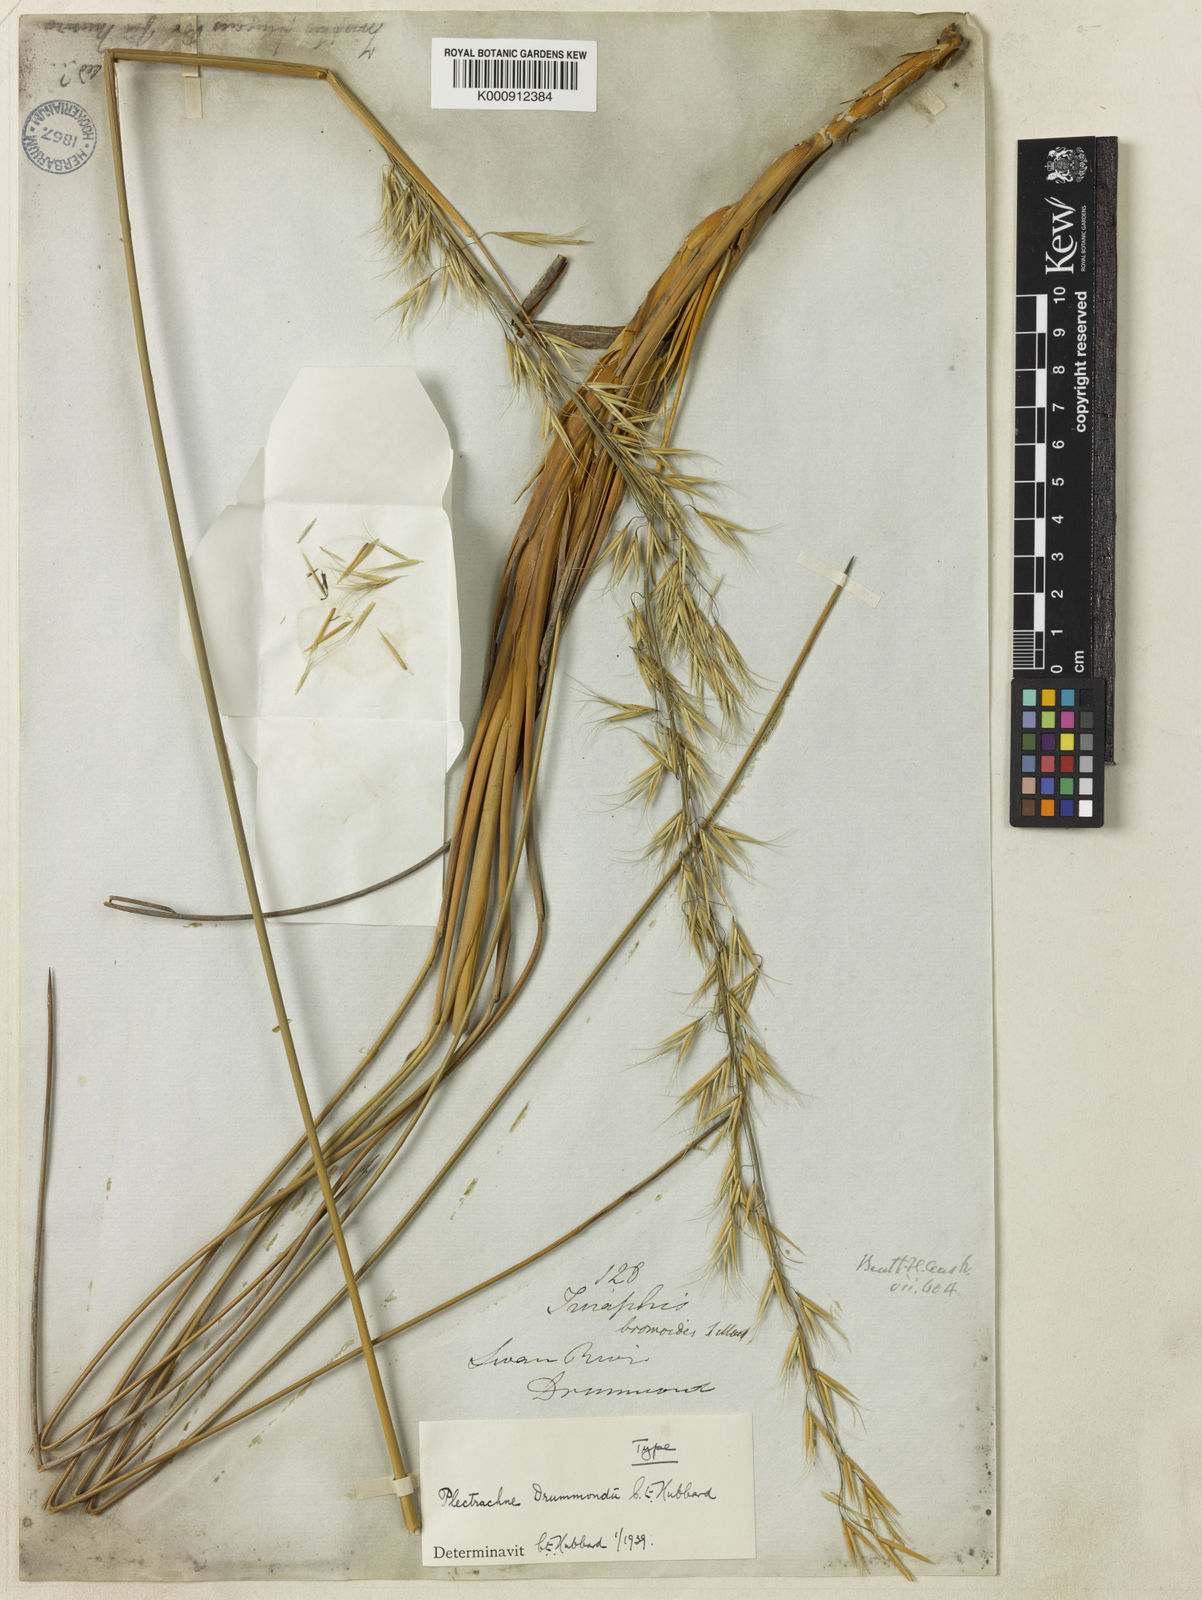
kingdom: Plantae
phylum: Tracheophyta
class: Liliopsida
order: Poales
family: Poaceae
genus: Triodia
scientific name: Triodia longipalea
